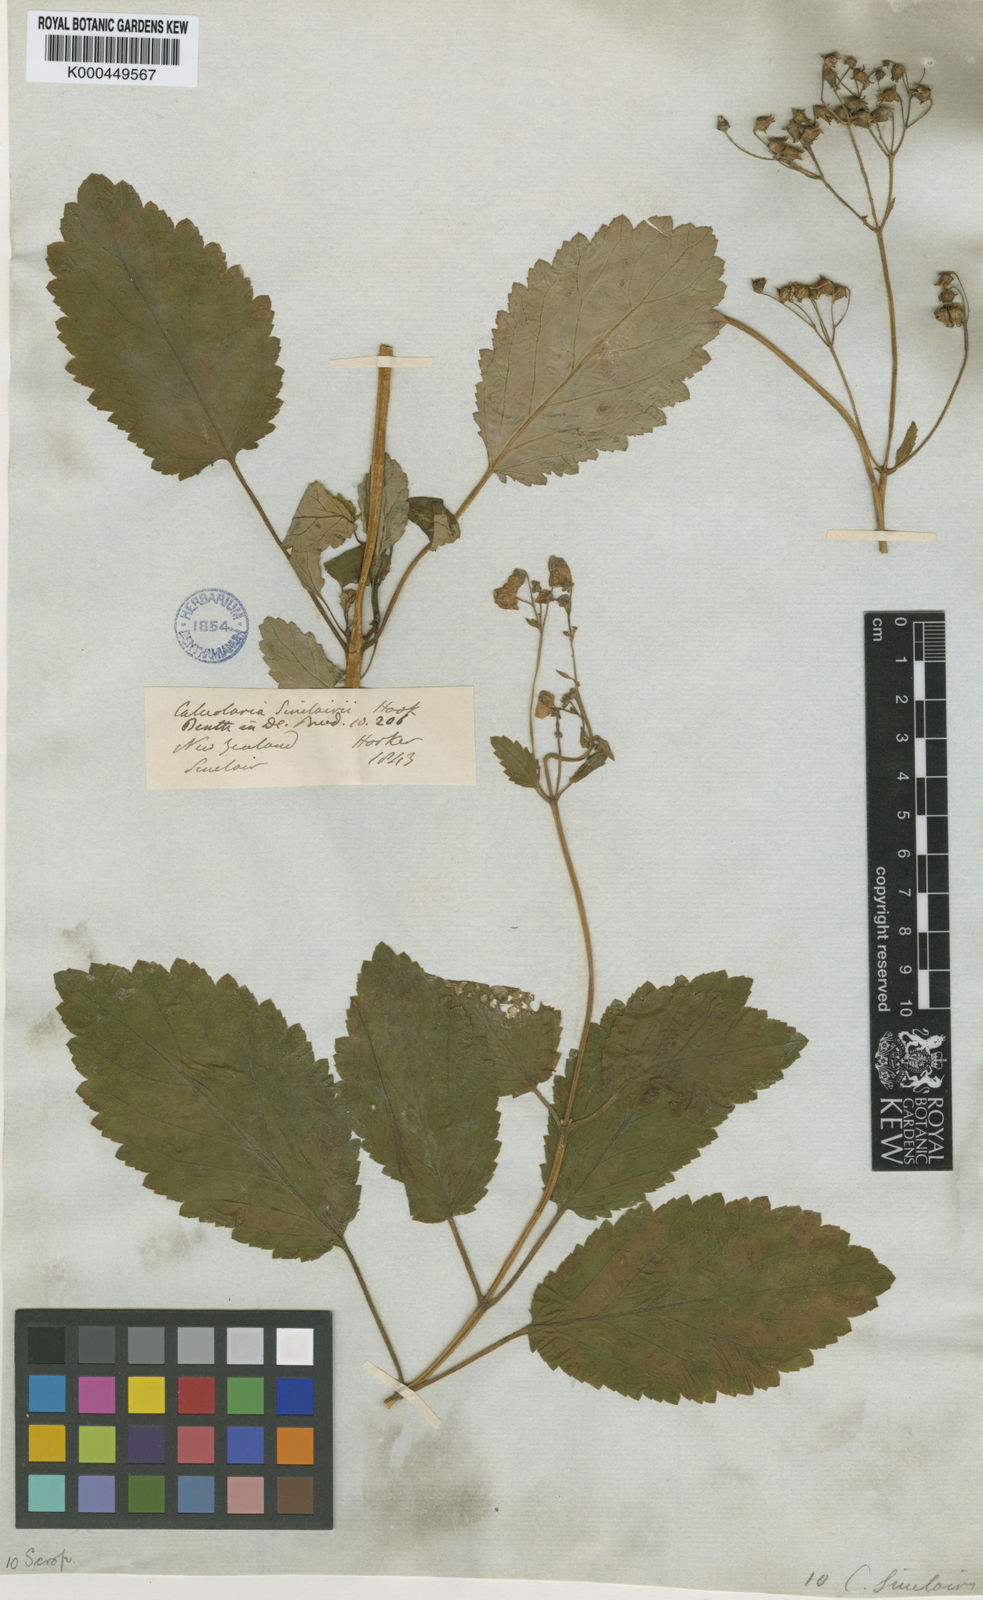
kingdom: Plantae
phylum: Tracheophyta
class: Magnoliopsida
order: Lamiales
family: Calceolariaceae
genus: Jovellana
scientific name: Jovellana sinclairii
